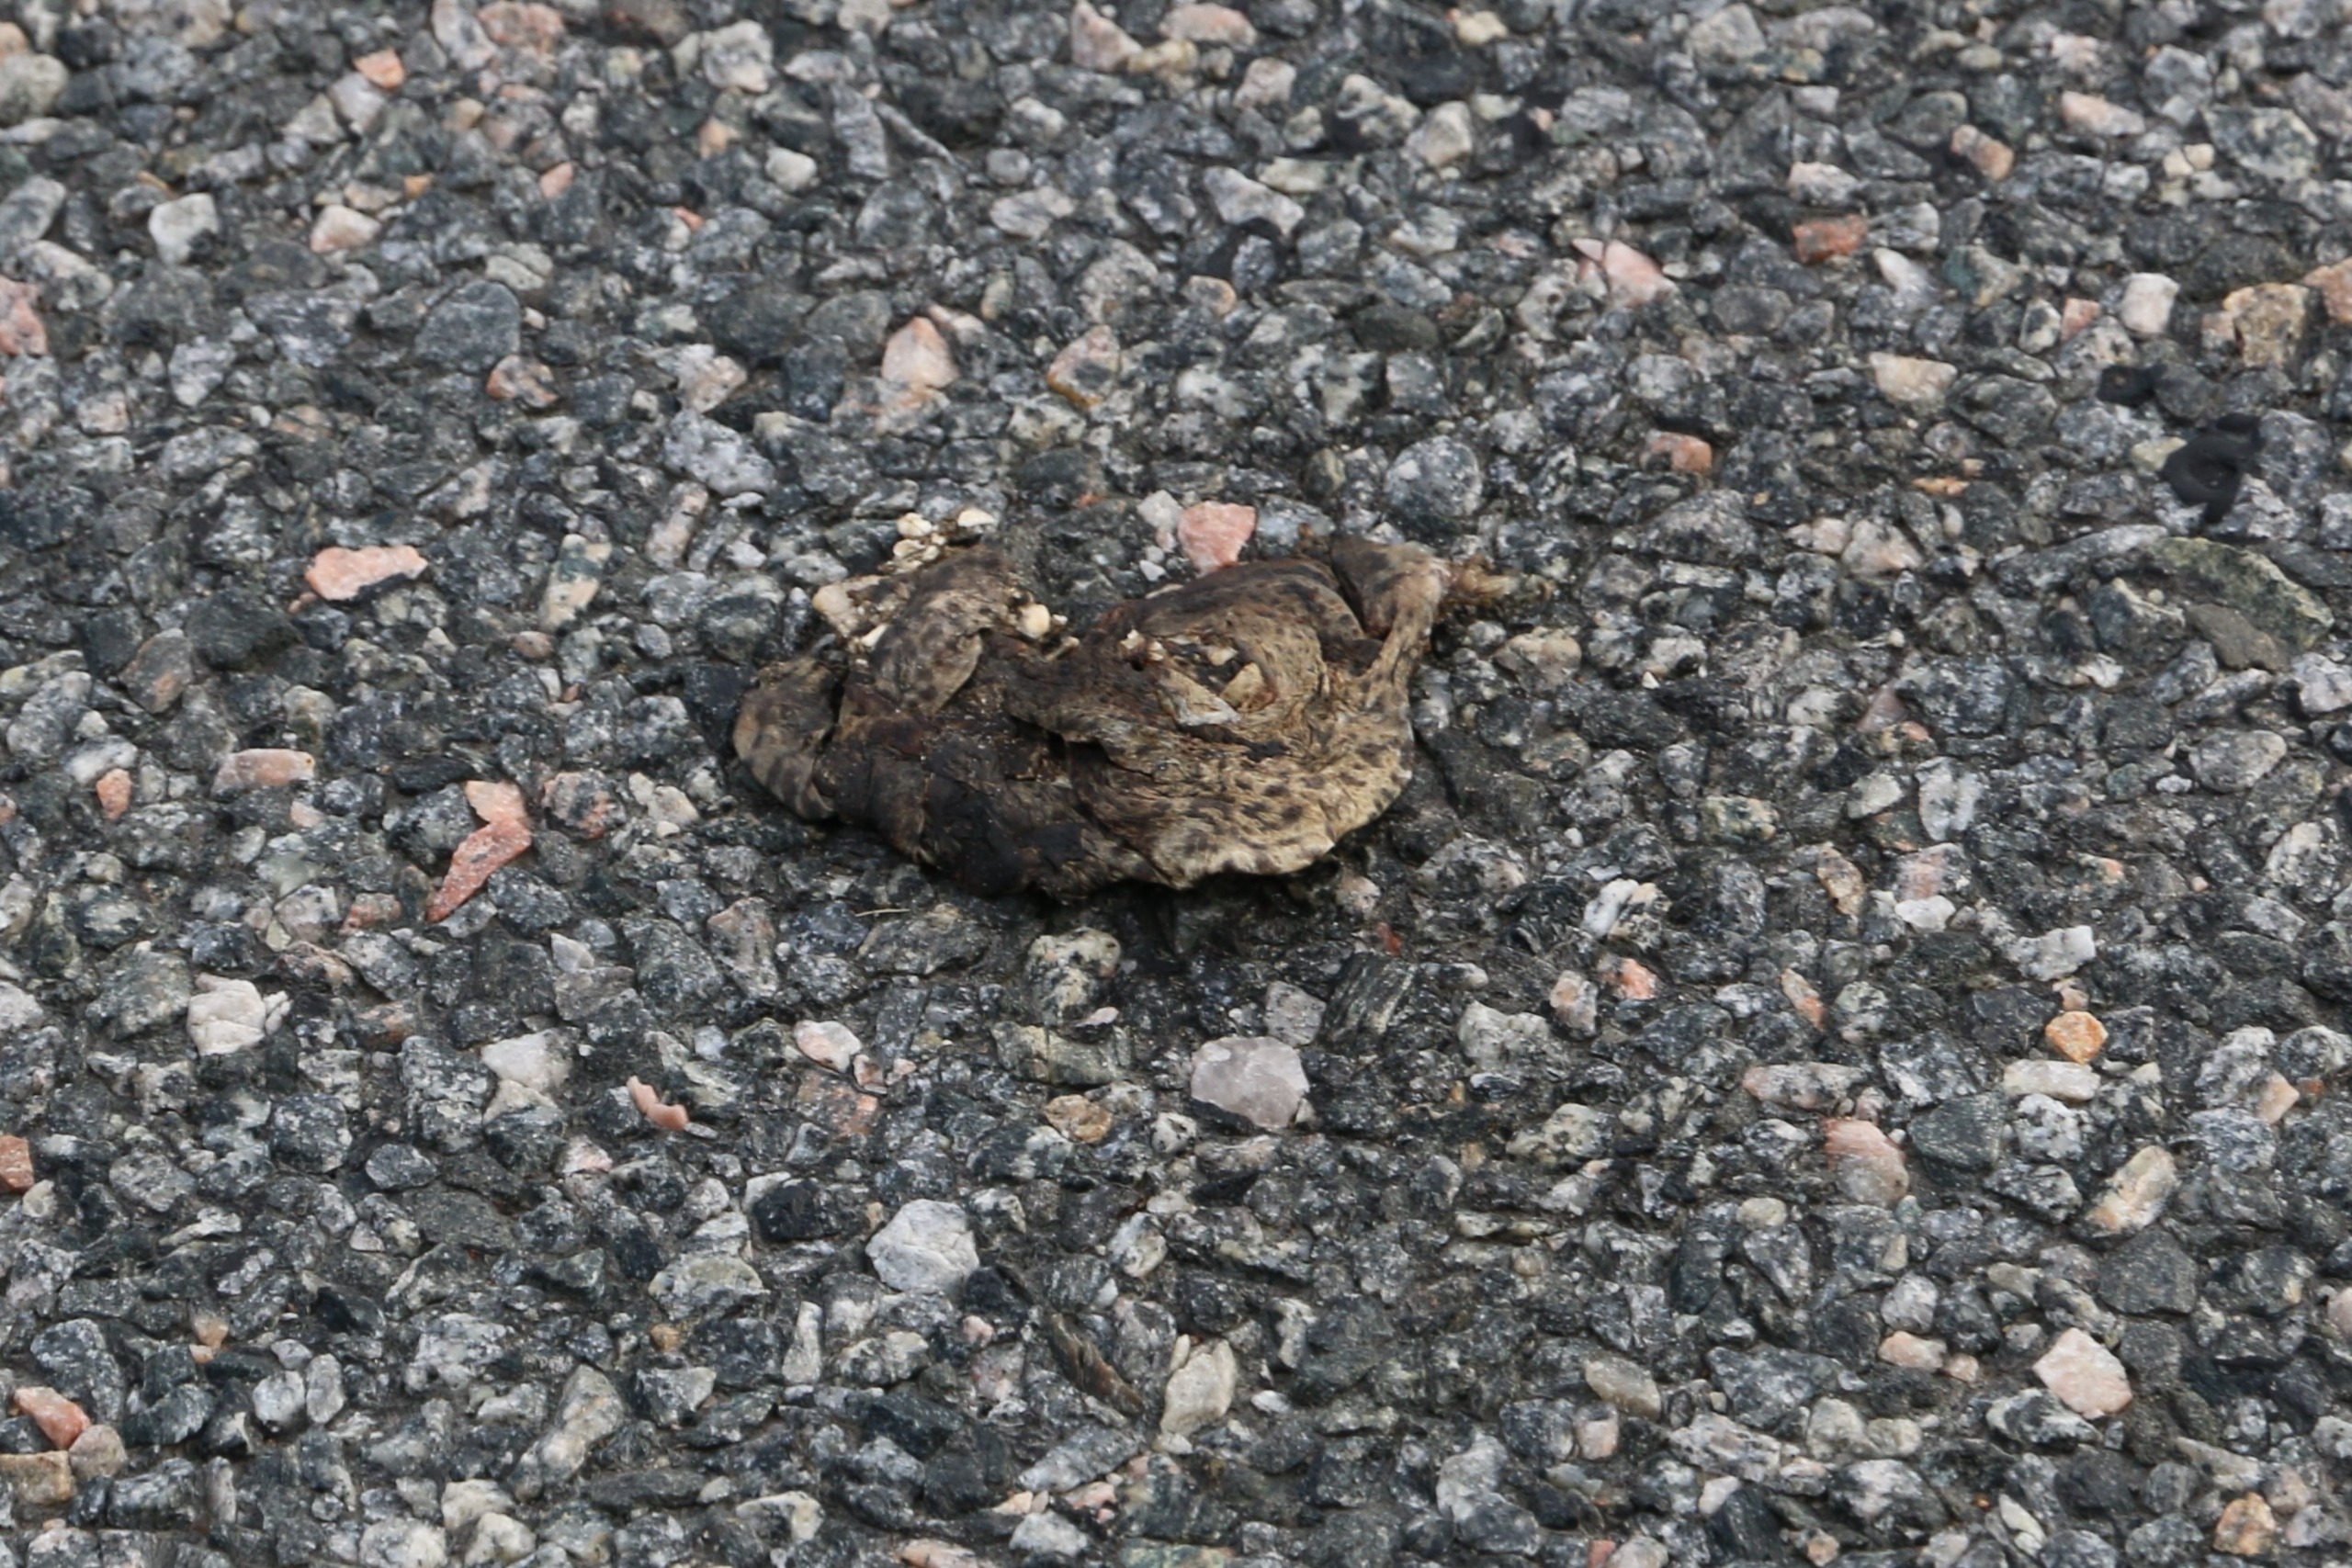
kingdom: Animalia
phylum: Chordata
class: Amphibia
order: Anura
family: Bufonidae
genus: Bufo
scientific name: Bufo bufo
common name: Skrubtudse
